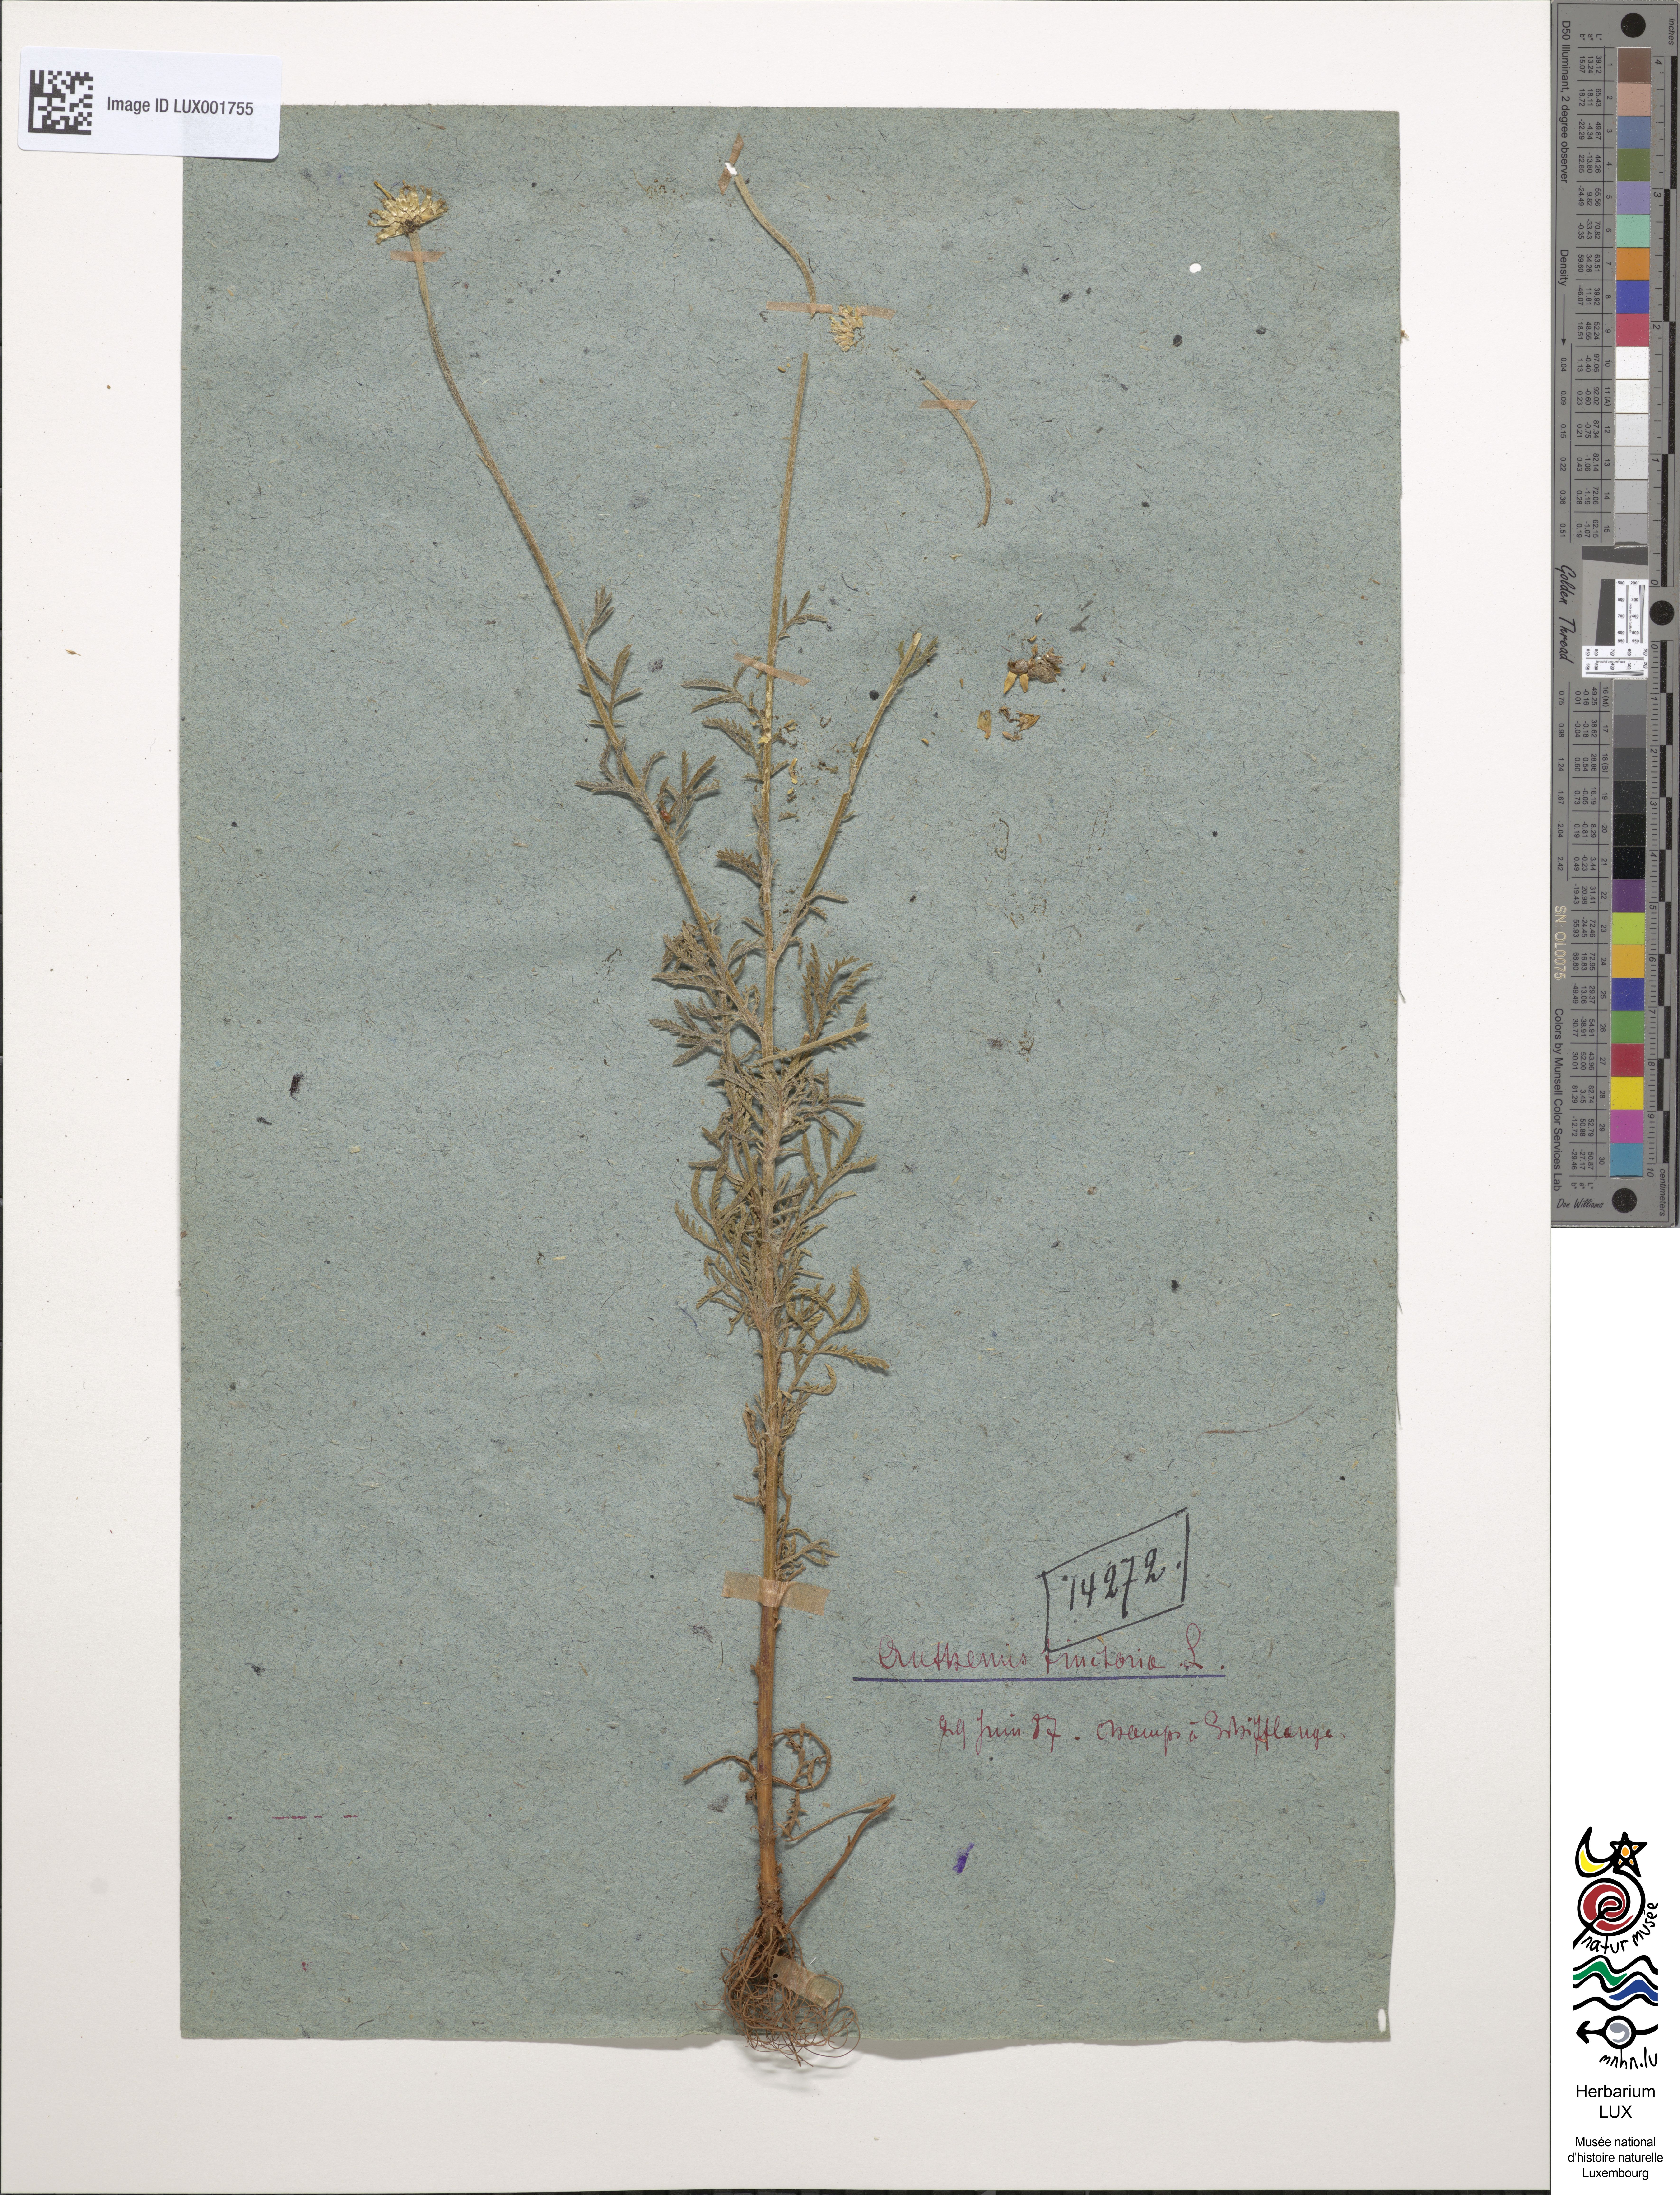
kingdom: Plantae
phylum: Tracheophyta
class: Magnoliopsida
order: Asterales
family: Asteraceae
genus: Cota
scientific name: Cota tinctoria
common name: Golden chamomile
